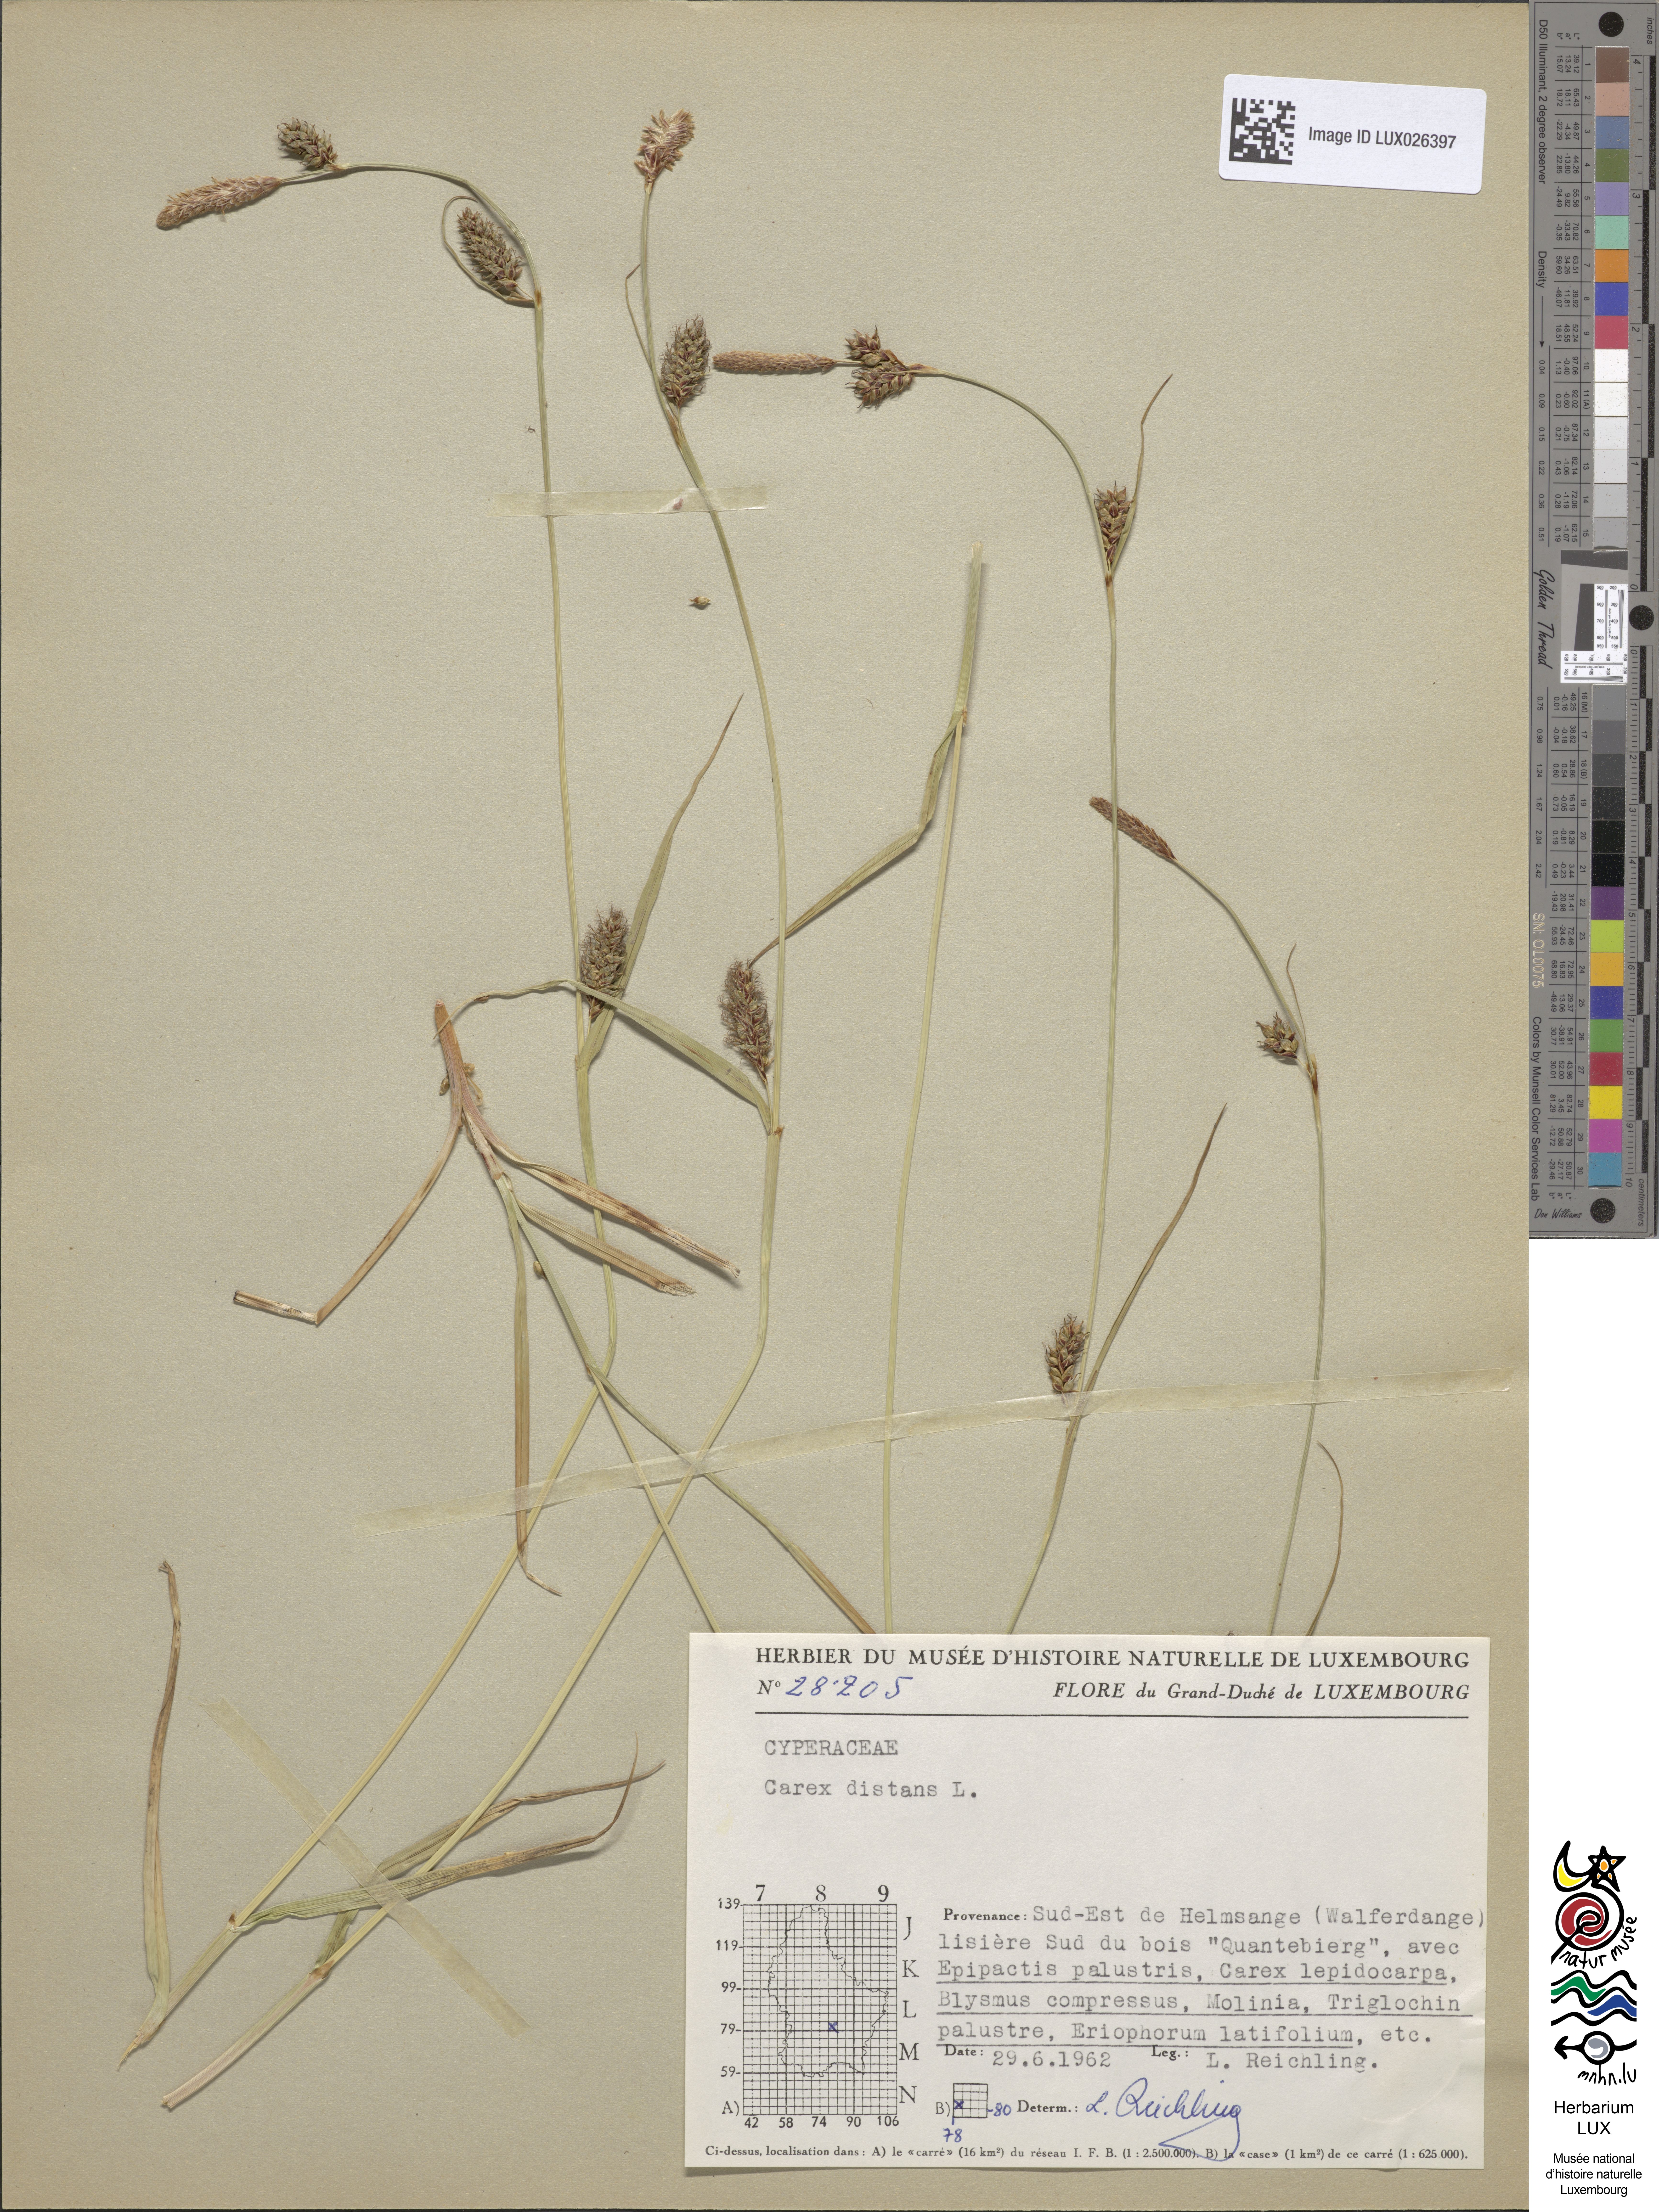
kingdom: Plantae
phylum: Tracheophyta
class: Liliopsida
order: Poales
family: Cyperaceae
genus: Carex
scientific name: Carex distans
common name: Distant sedge
